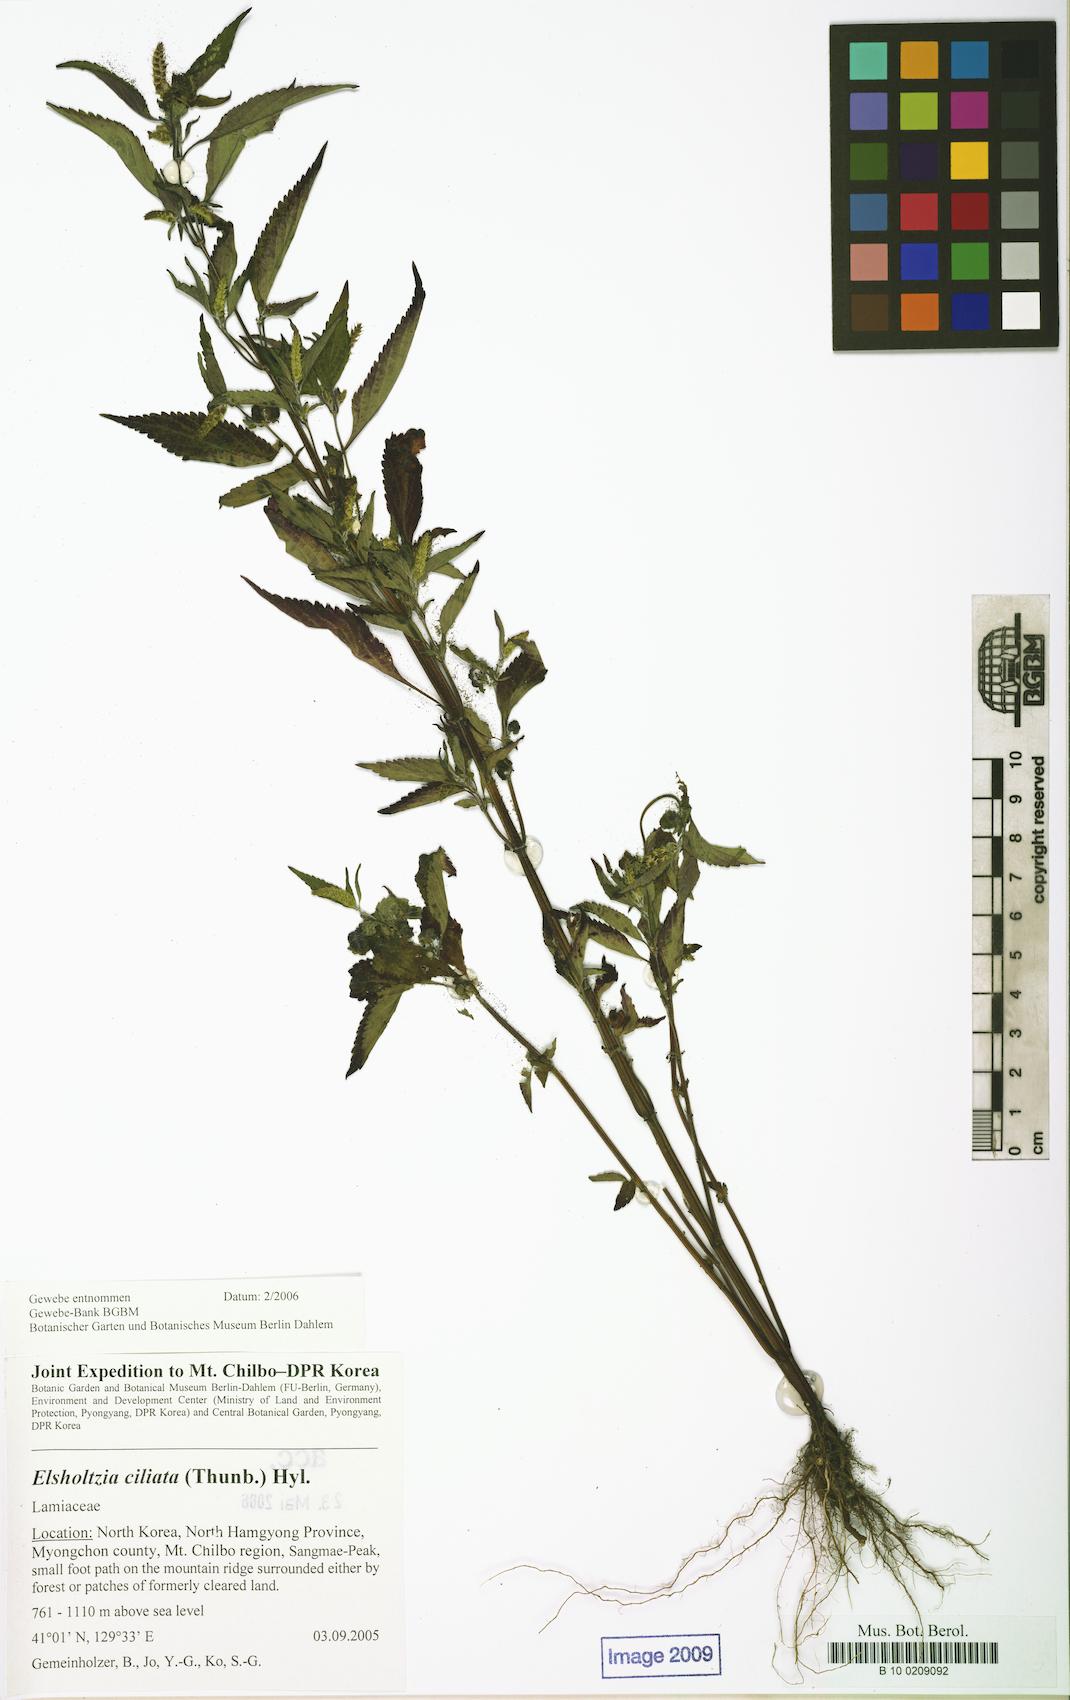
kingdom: Plantae
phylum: Tracheophyta
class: Magnoliopsida
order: Lamiales
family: Lamiaceae
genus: Elsholtzia
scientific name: Elsholtzia ciliata
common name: Ciliate elsholtzia
